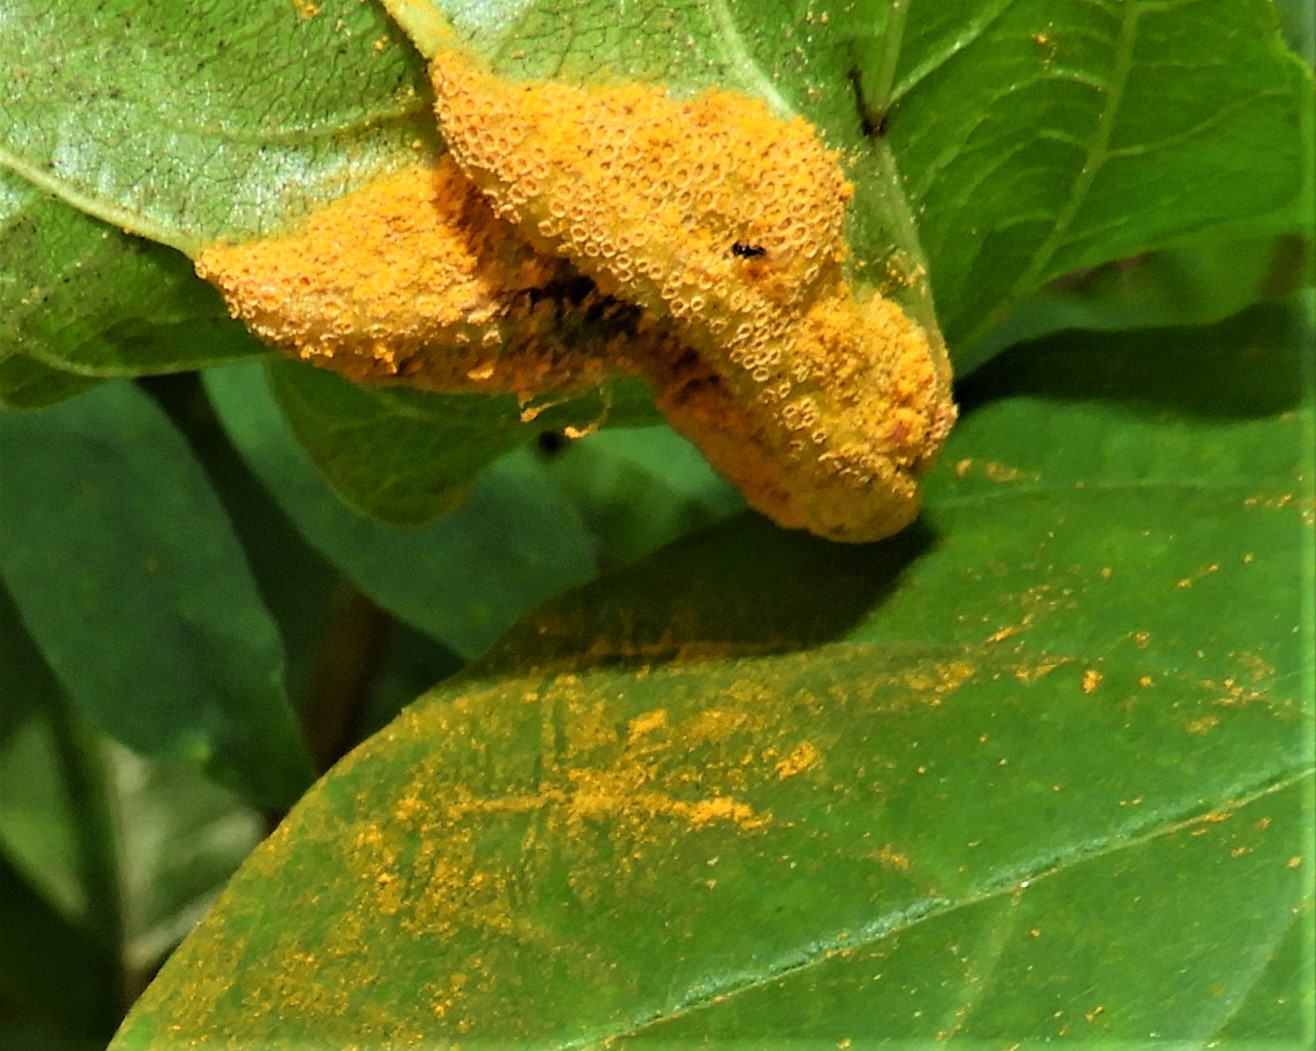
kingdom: Fungi
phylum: Basidiomycota
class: Pucciniomycetes
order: Pucciniales
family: Pucciniaceae
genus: Puccinia
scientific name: Puccinia coronata
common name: Crown rust
